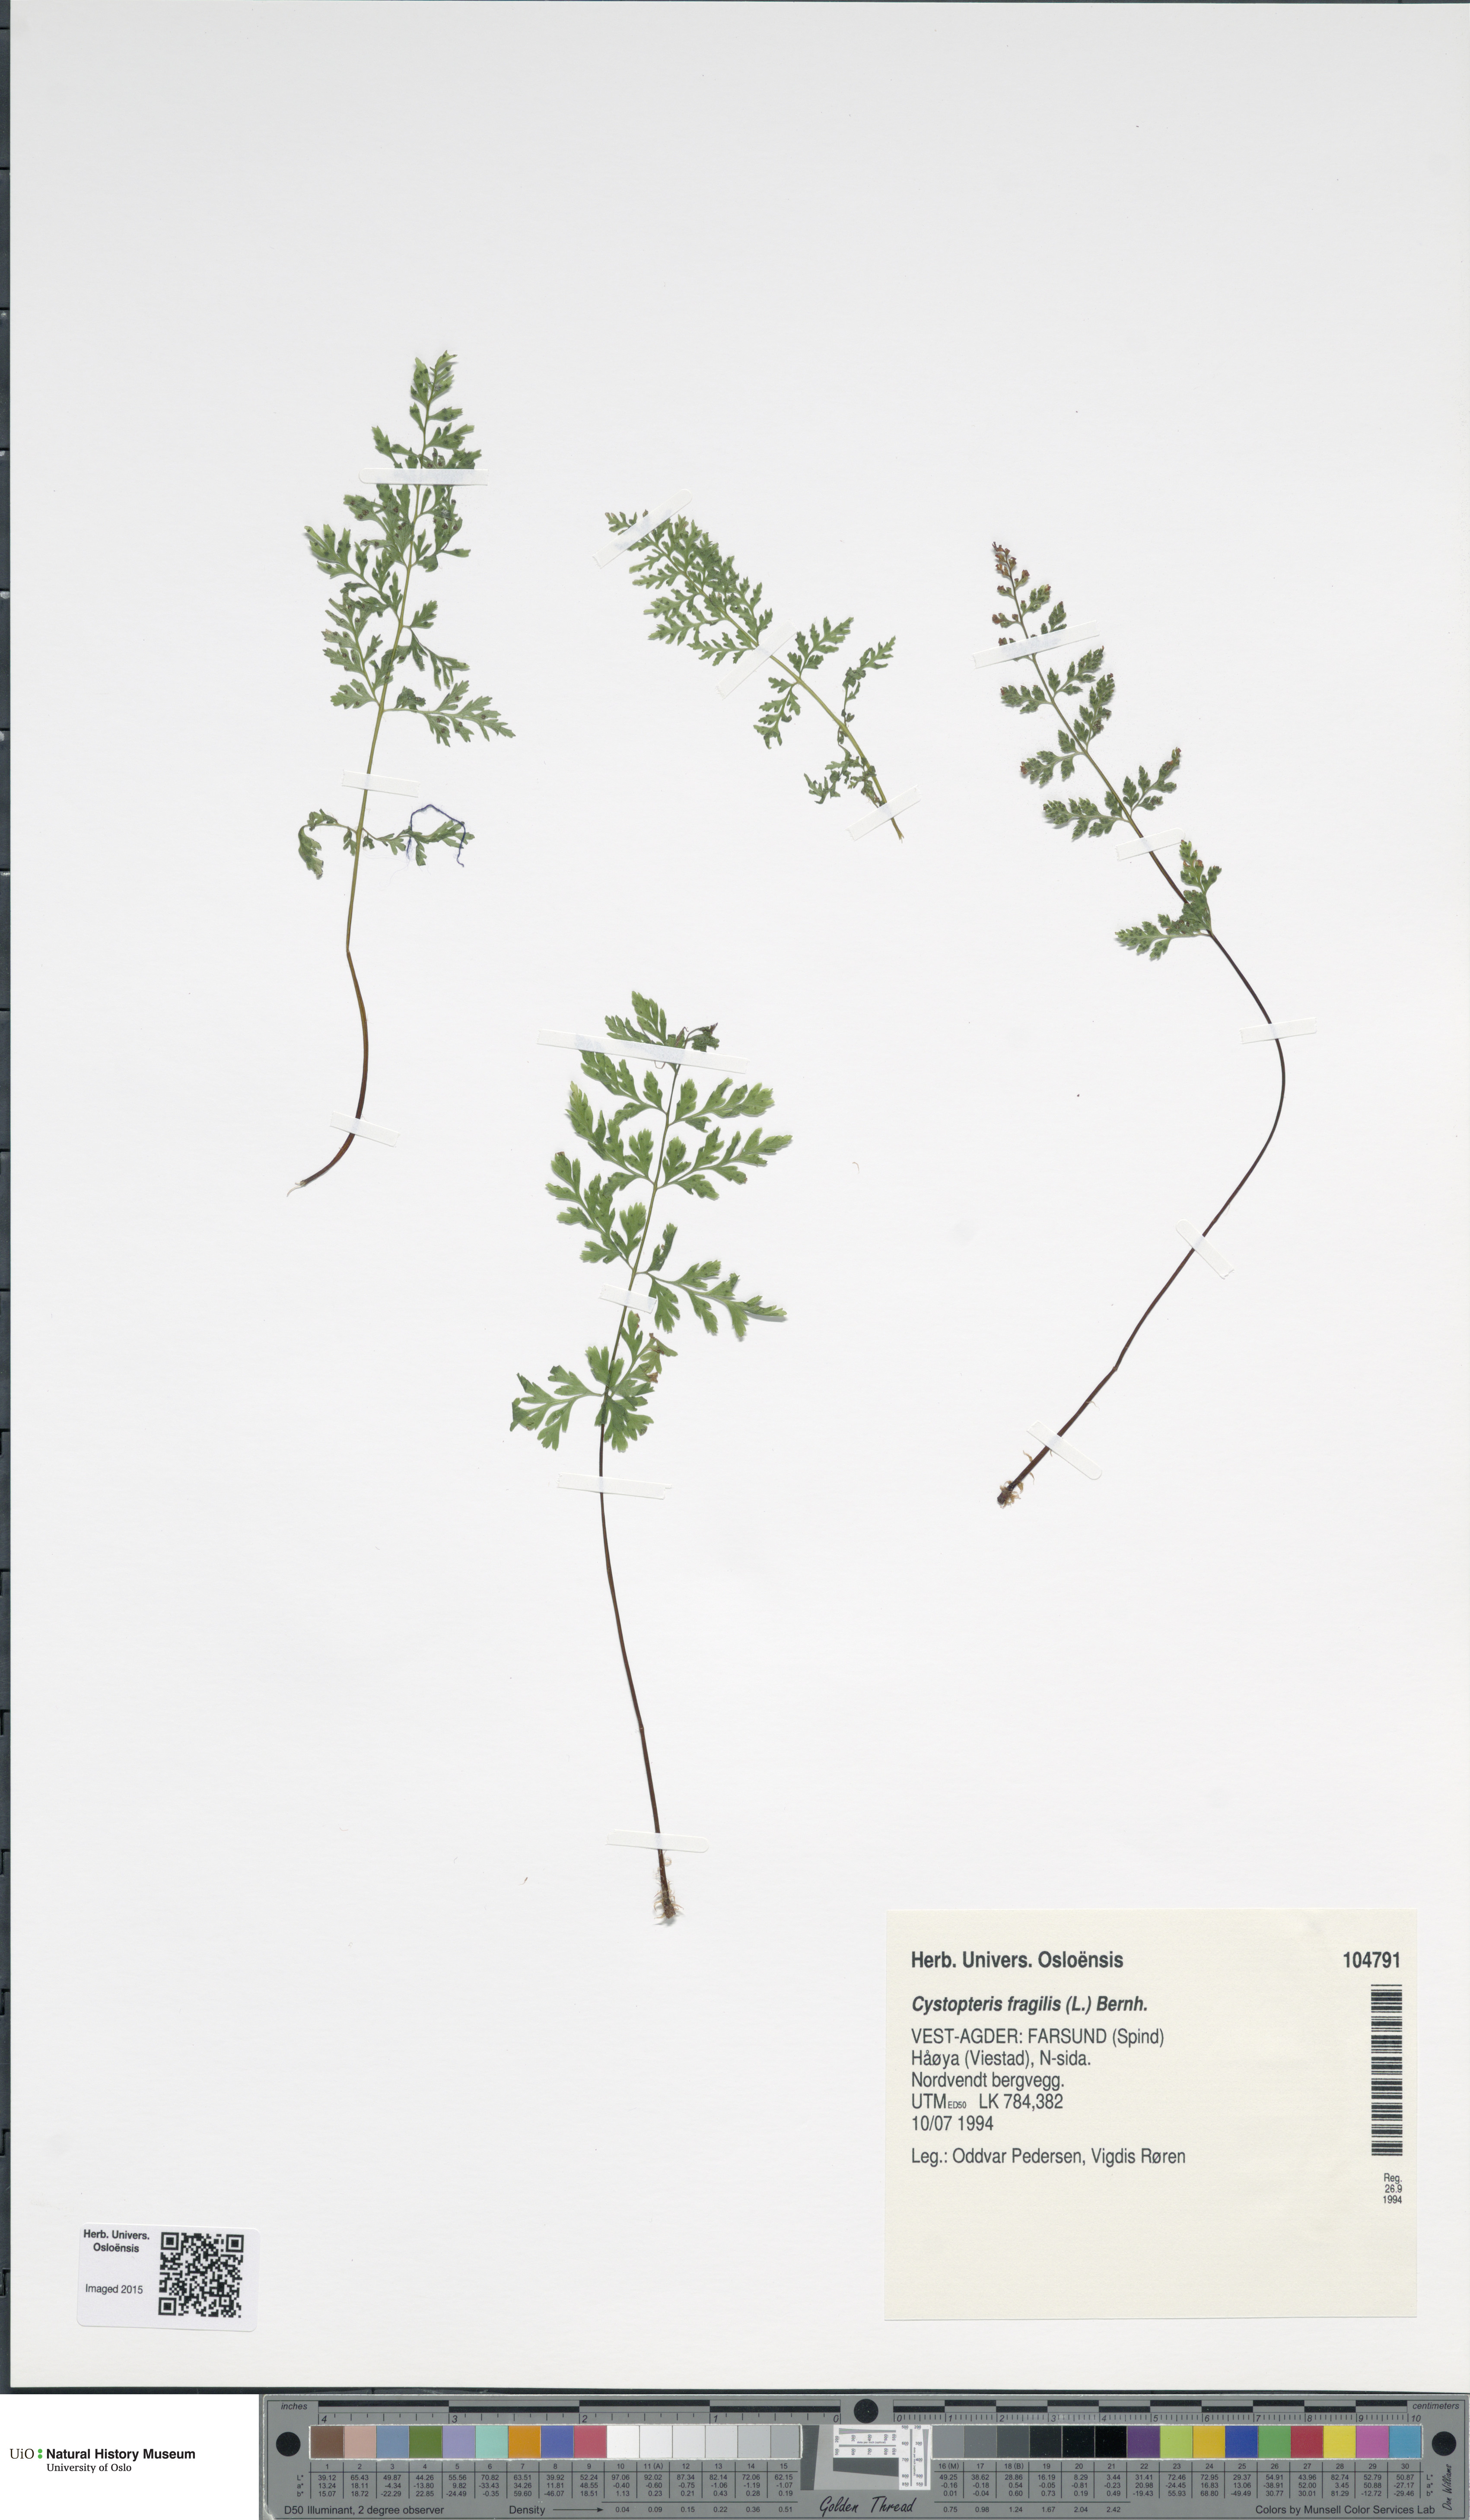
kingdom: Plantae
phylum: Tracheophyta
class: Polypodiopsida
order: Polypodiales
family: Cystopteridaceae
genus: Cystopteris
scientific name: Cystopteris fragilis
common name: Brittle bladder fern
